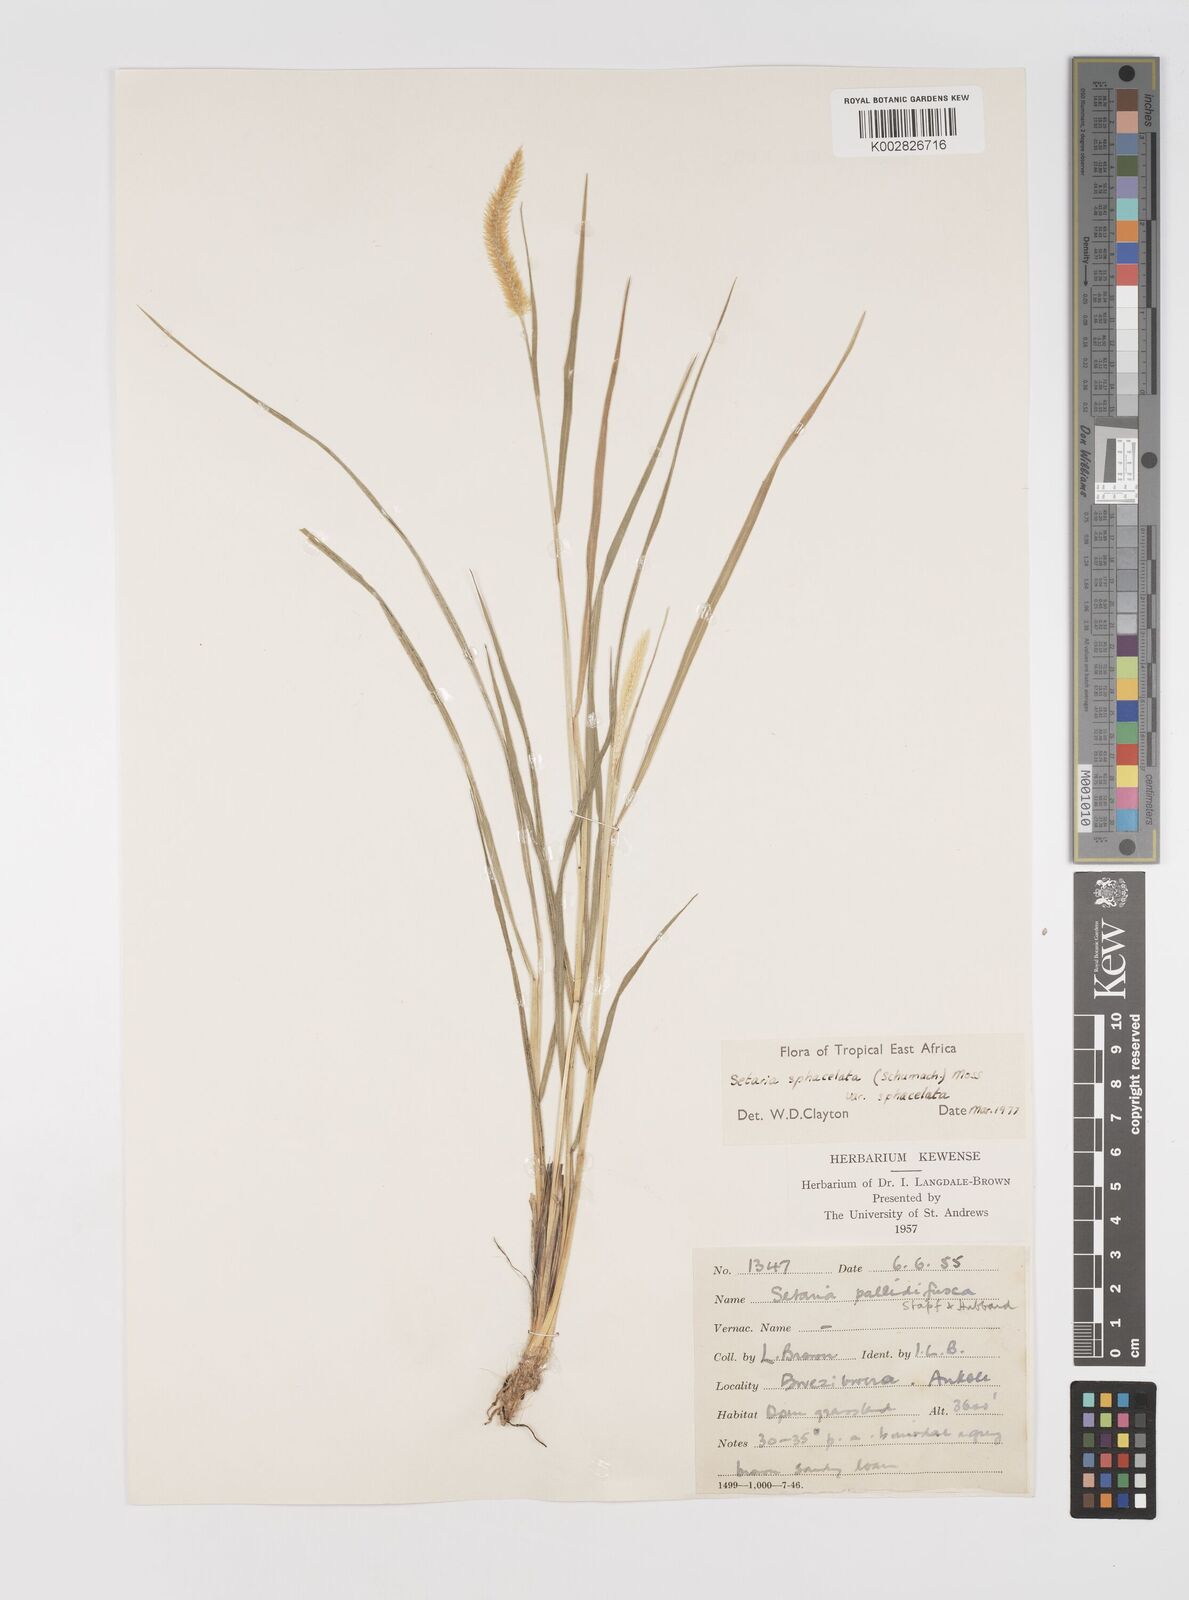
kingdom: Plantae
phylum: Tracheophyta
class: Liliopsida
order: Poales
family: Poaceae
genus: Setaria
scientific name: Setaria sphacelata
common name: African bristlegrass
